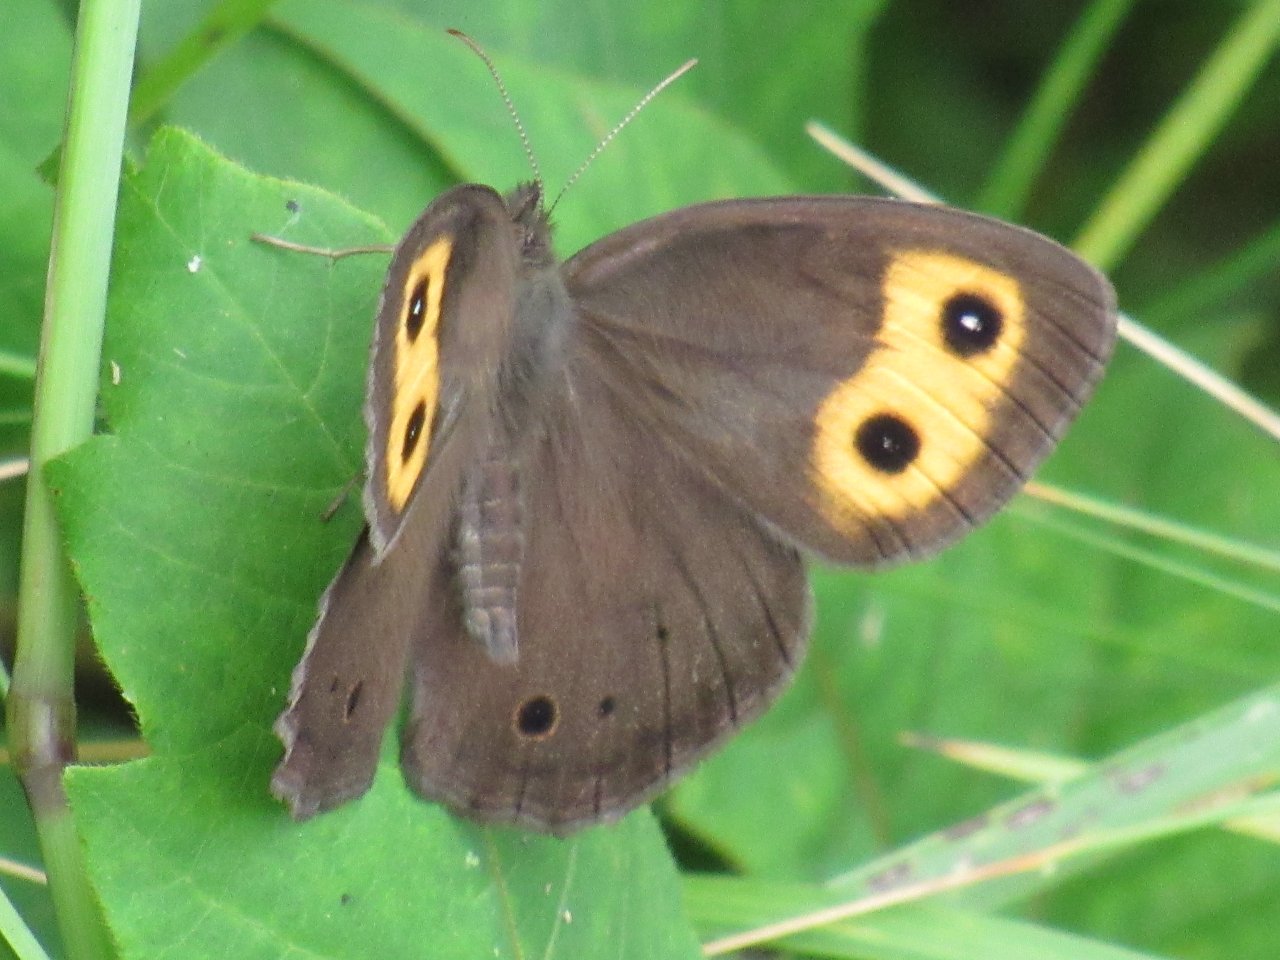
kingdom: Animalia
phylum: Arthropoda
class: Insecta
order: Lepidoptera
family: Nymphalidae
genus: Cercyonis
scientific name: Cercyonis pegala
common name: Common Wood-Nymph
